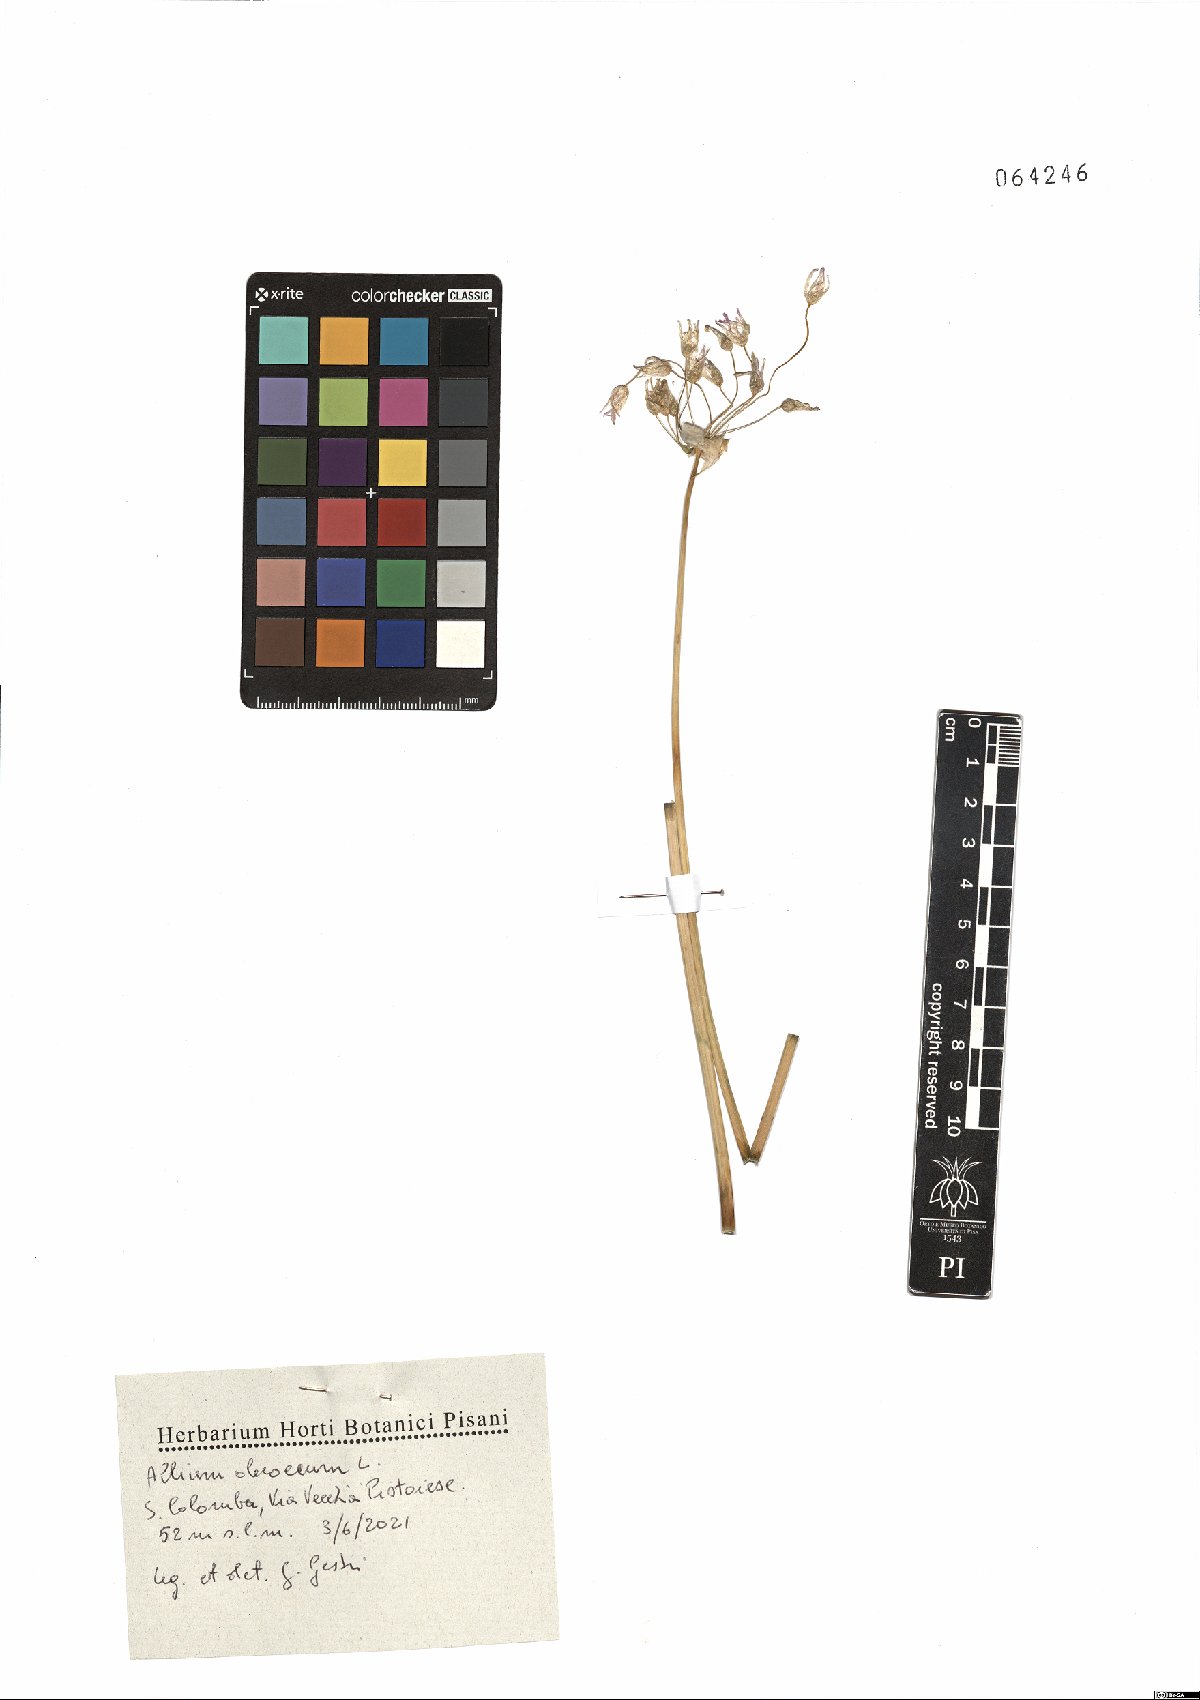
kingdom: Plantae
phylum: Tracheophyta
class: Liliopsida
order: Asparagales
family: Amaryllidaceae
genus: Allium
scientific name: Allium oleraceum
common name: Field garlic
